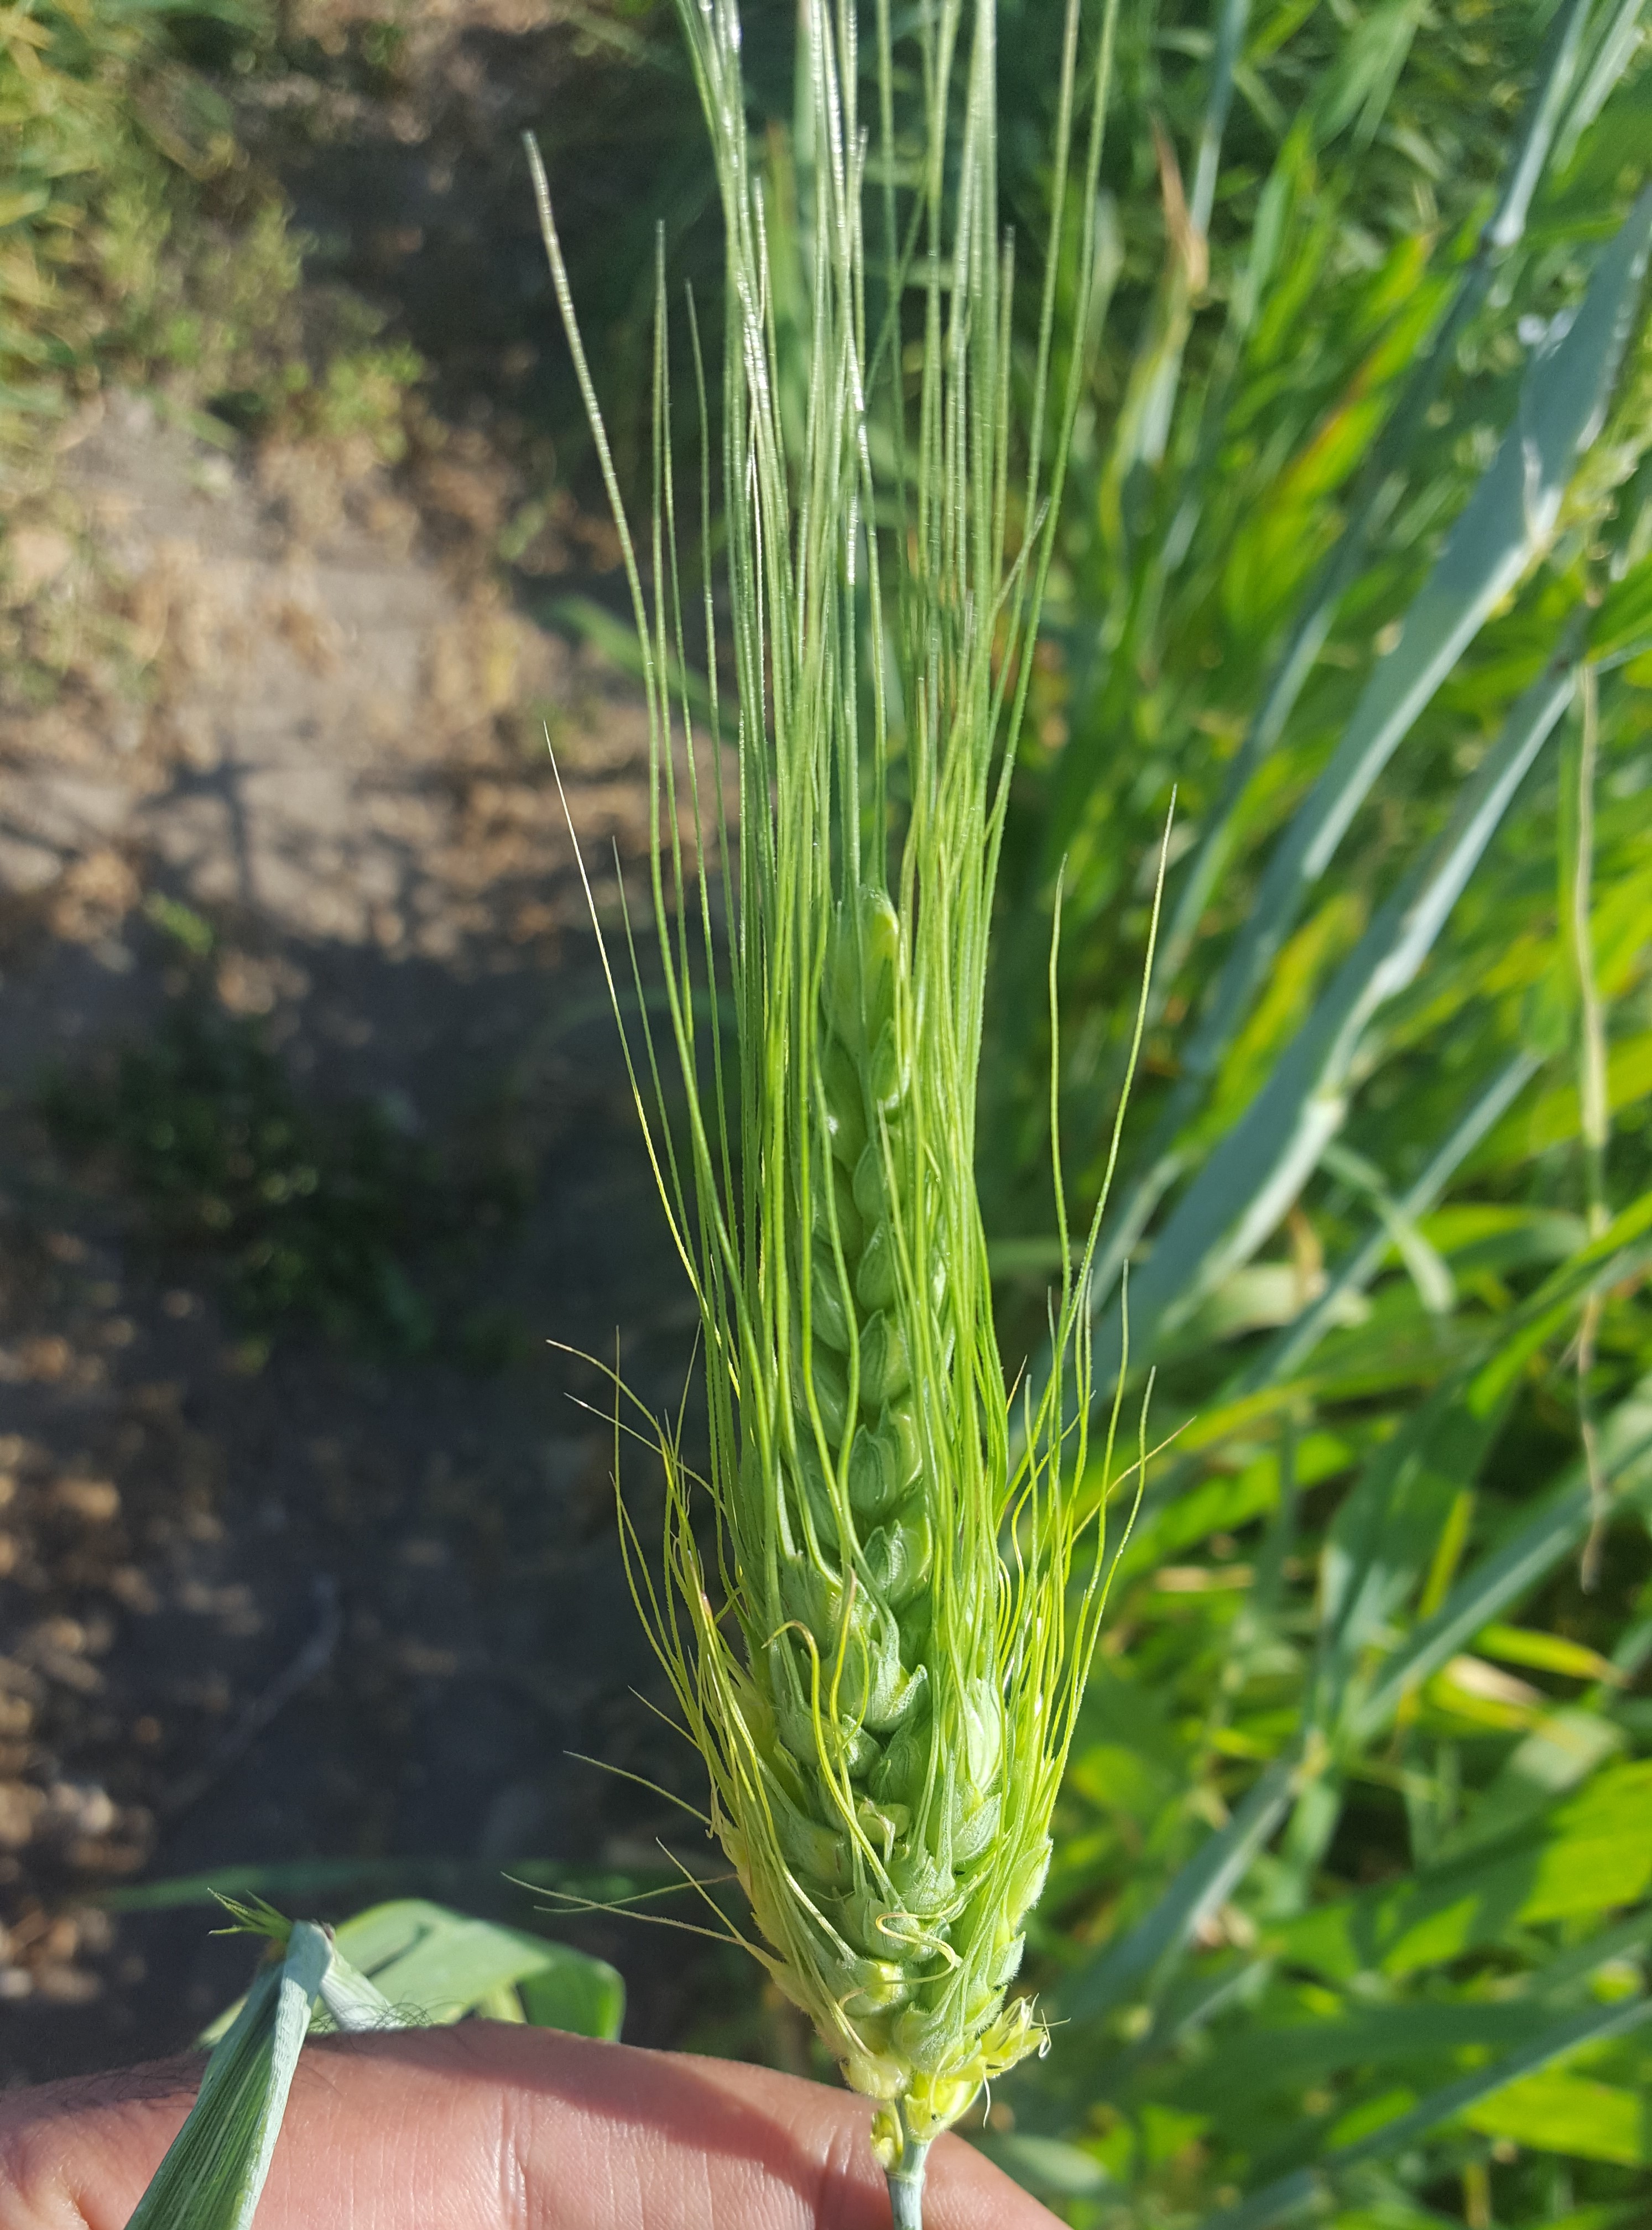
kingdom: Plantae
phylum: Tracheophyta
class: Liliopsida
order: Poales
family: Poaceae
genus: Triticum
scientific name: Triticum turgidum
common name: Rivet wheat
